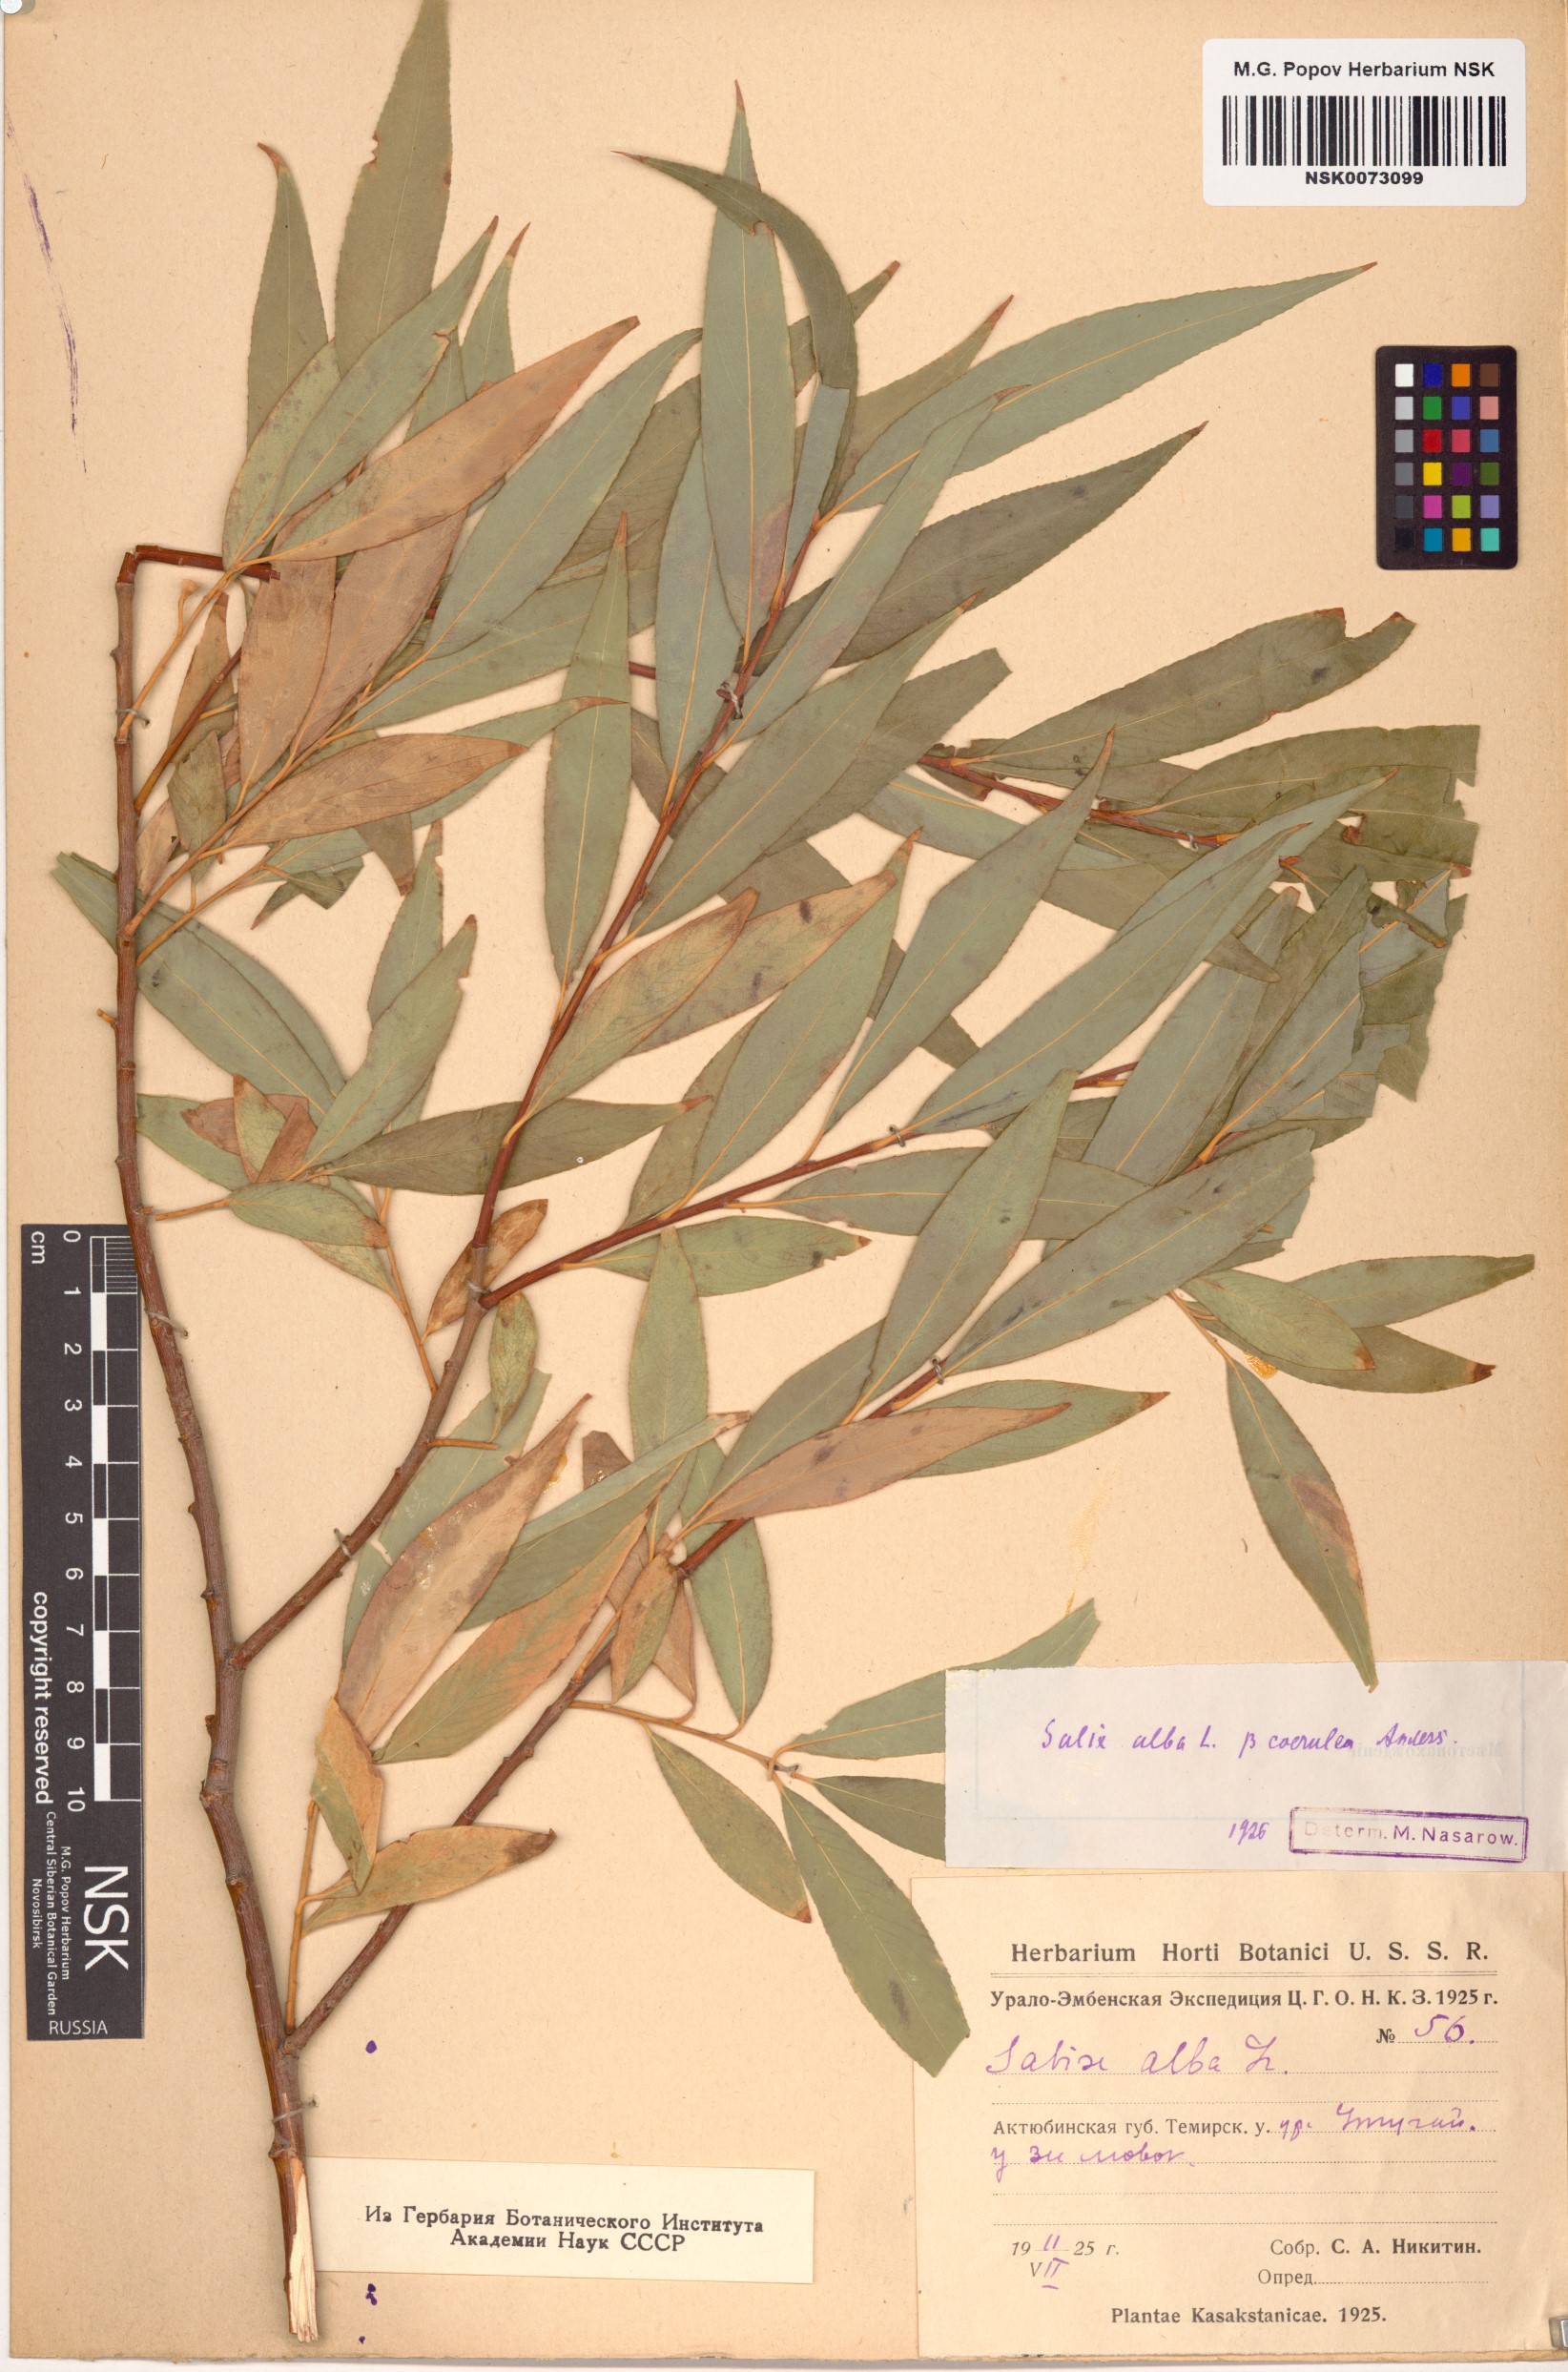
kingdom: Plantae
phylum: Tracheophyta
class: Magnoliopsida
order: Malpighiales
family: Salicaceae
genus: Salix
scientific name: Salix alba
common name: White willow
